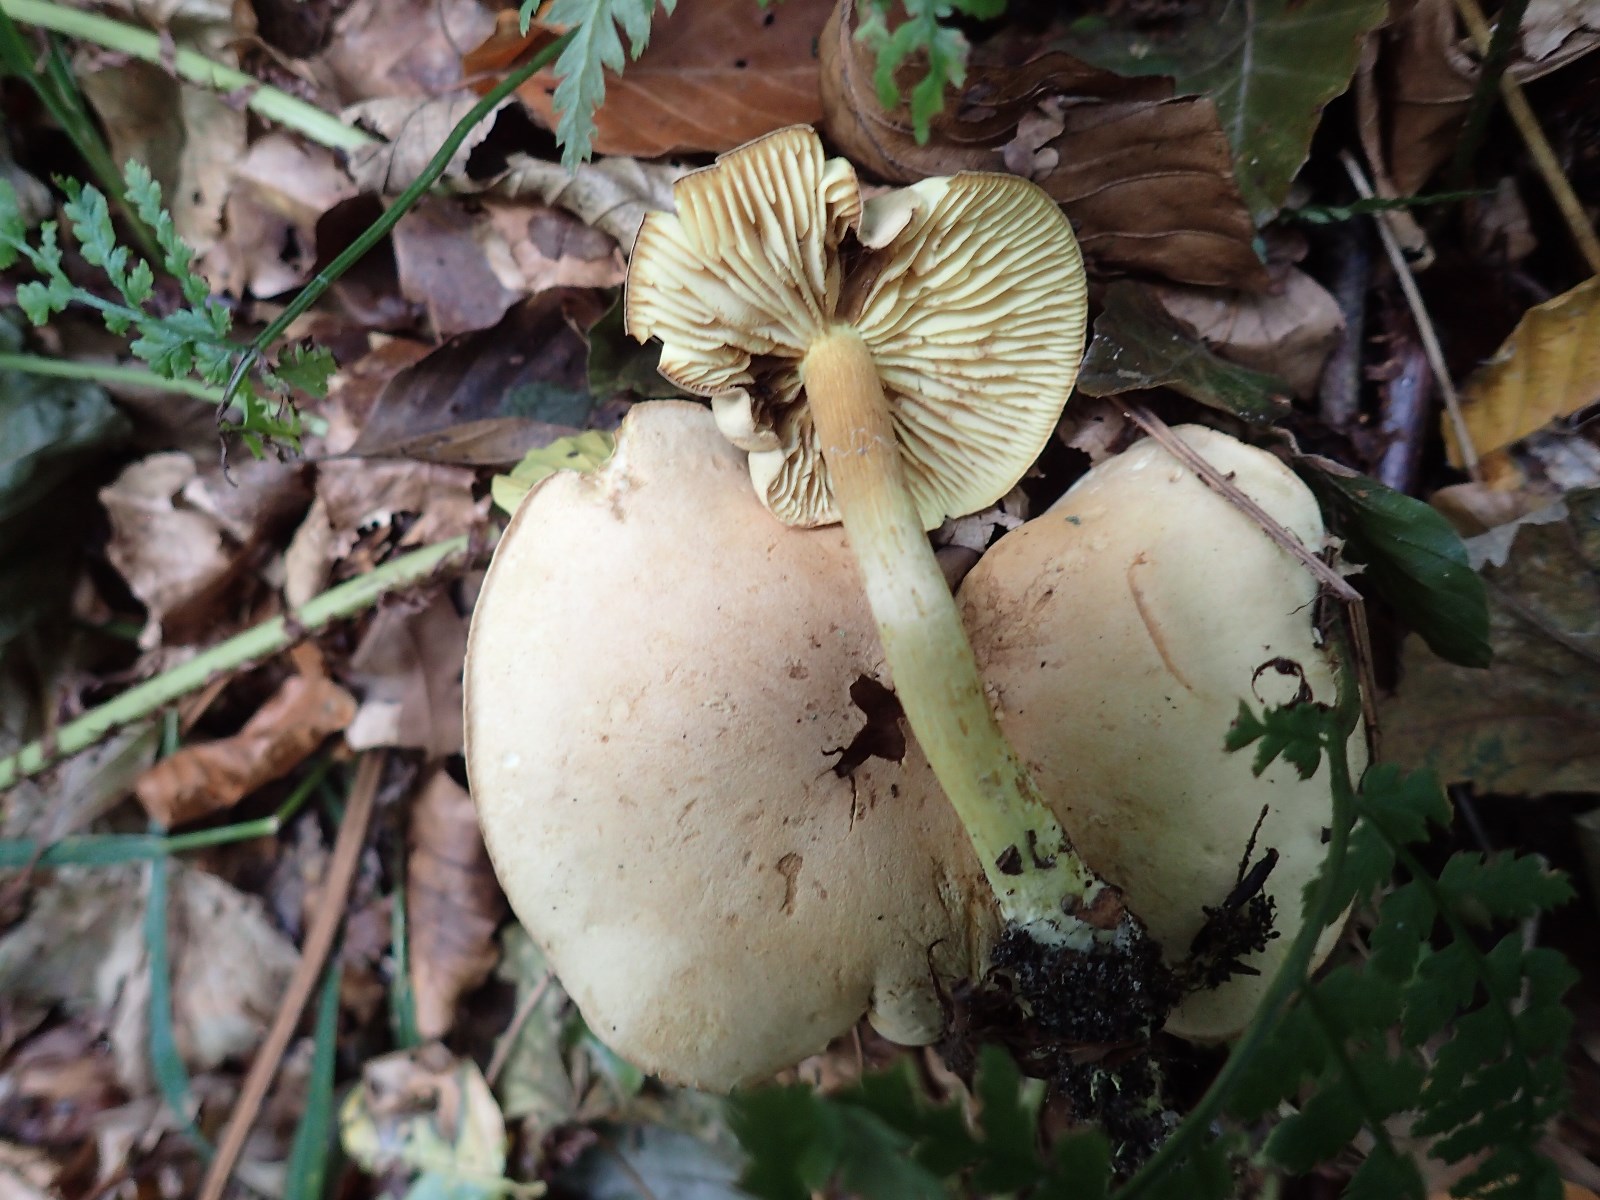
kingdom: Fungi
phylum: Basidiomycota
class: Agaricomycetes
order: Agaricales
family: Tricholomataceae
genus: Tricholoma
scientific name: Tricholoma sulphureum
